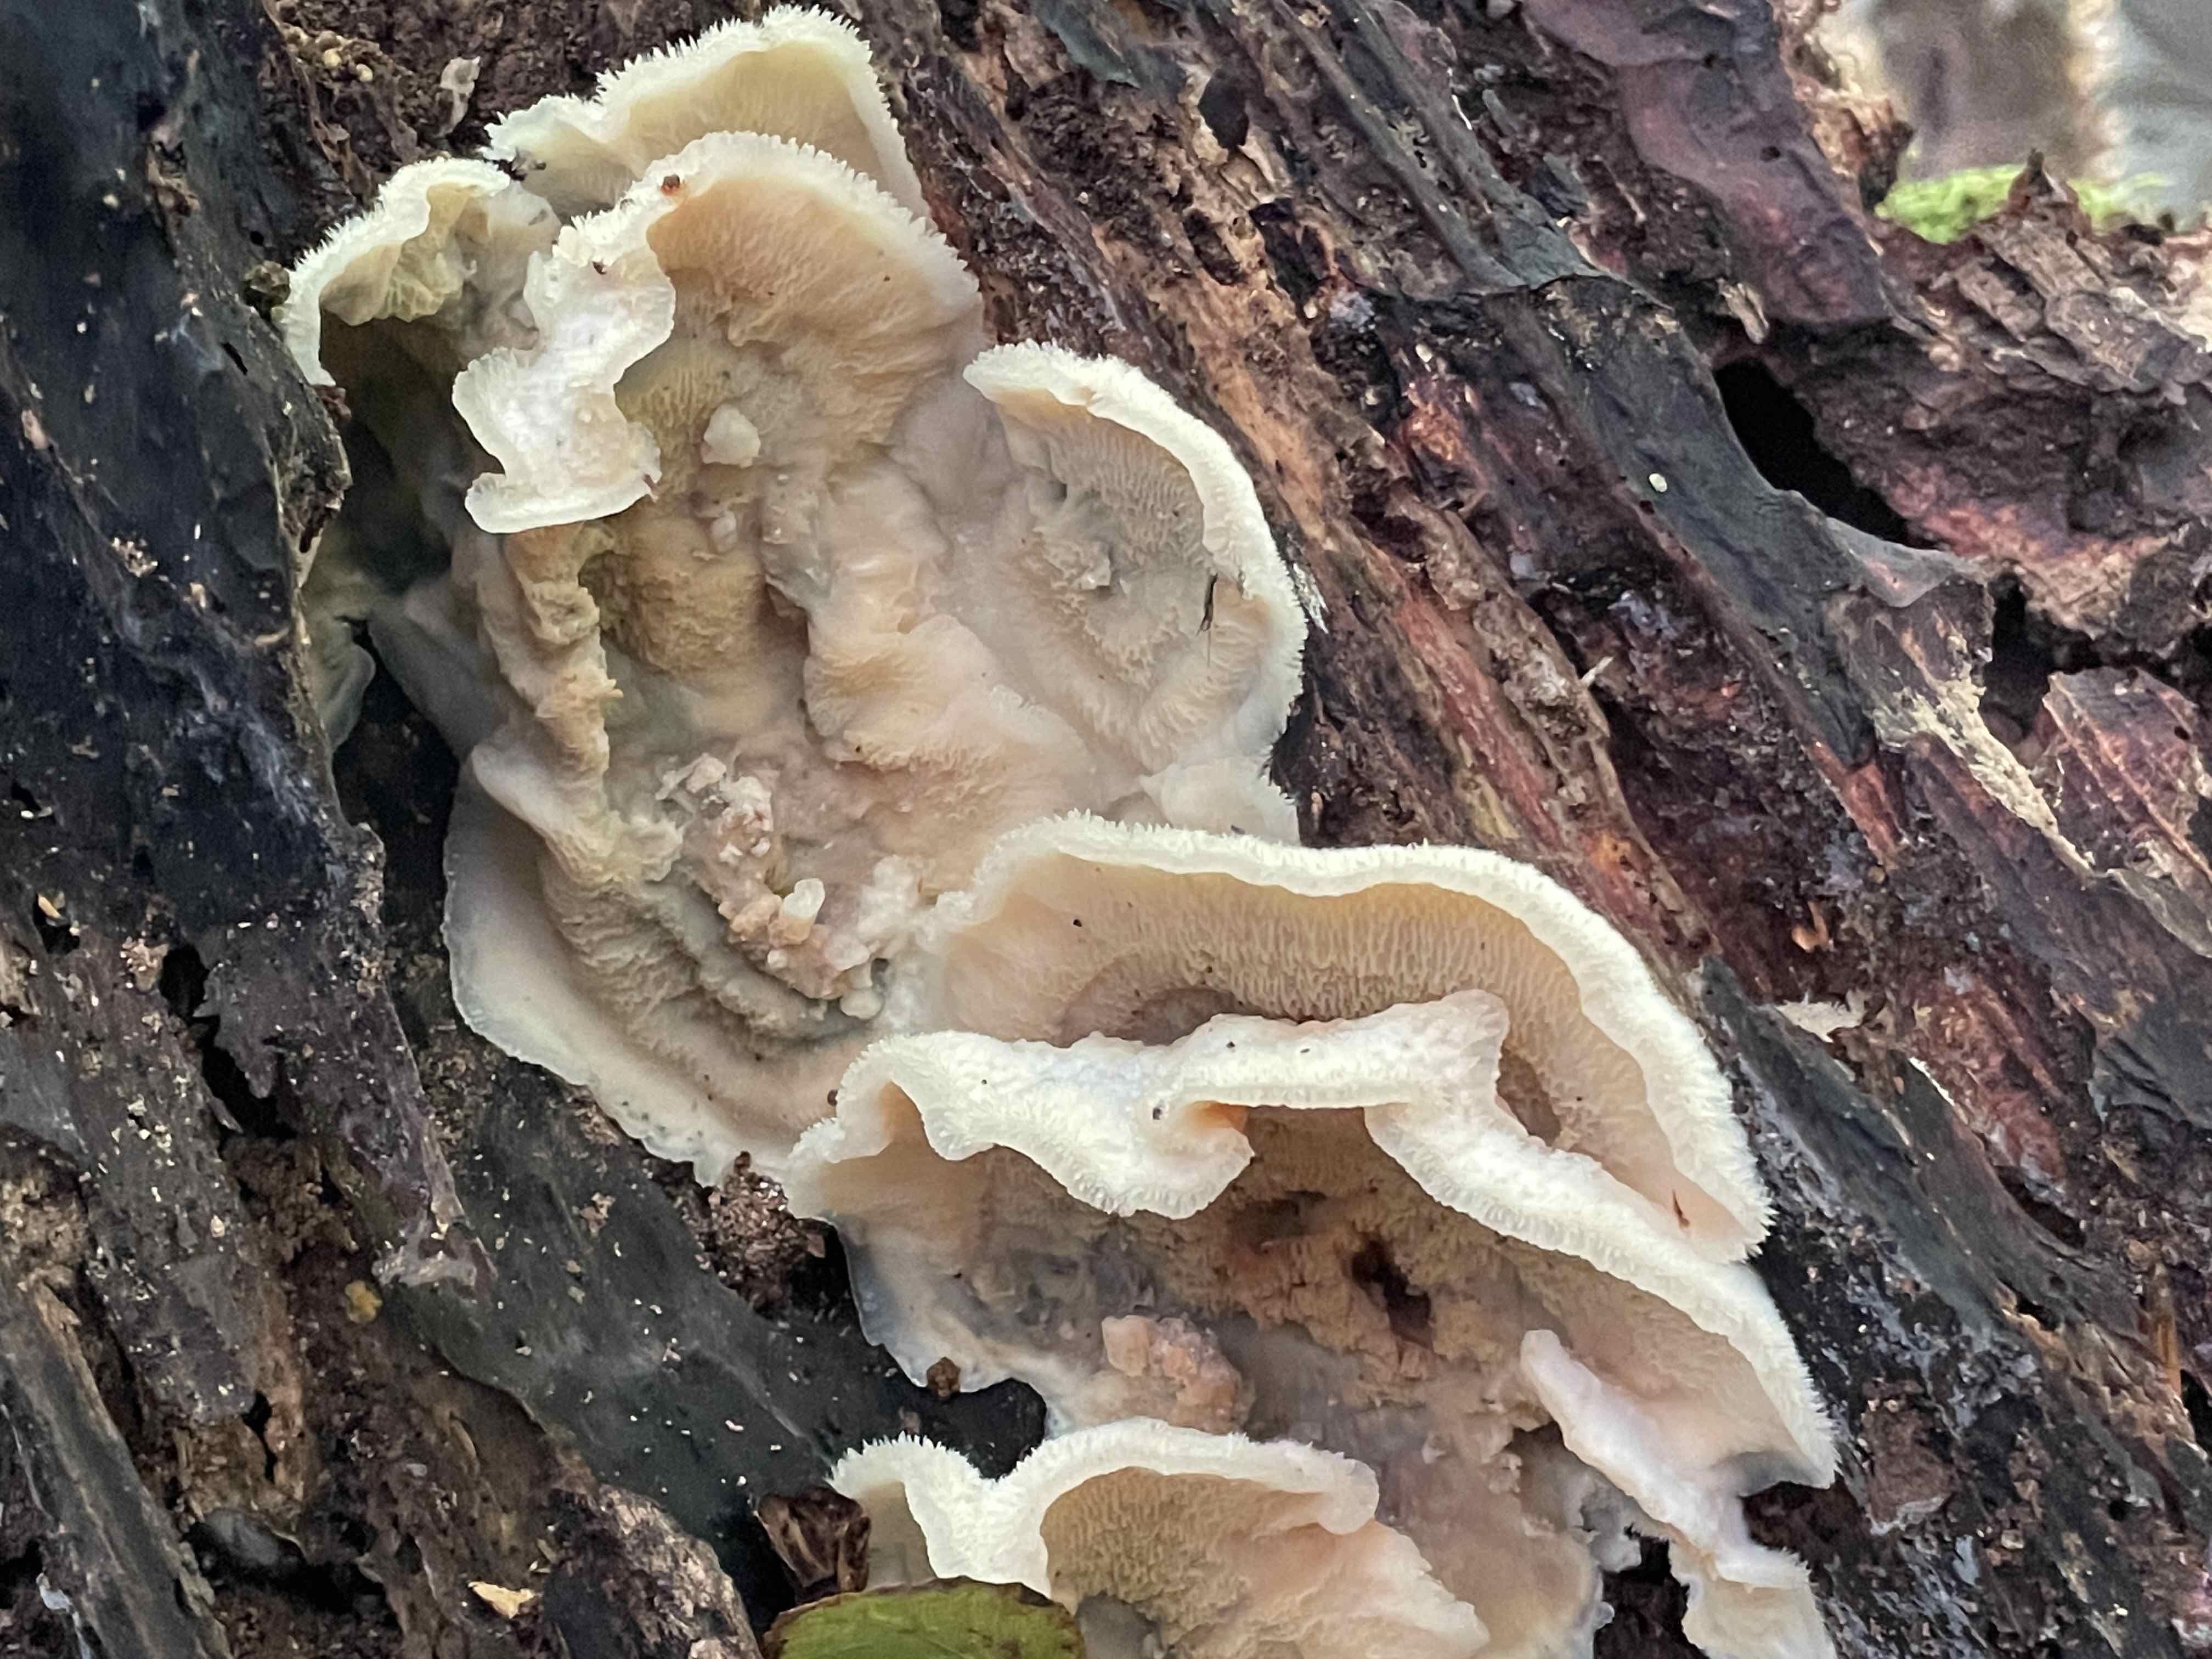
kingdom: Fungi
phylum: Basidiomycota
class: Agaricomycetes
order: Polyporales
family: Meruliaceae
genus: Phlebia
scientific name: Phlebia tremellosa
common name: bævrende åresvamp
